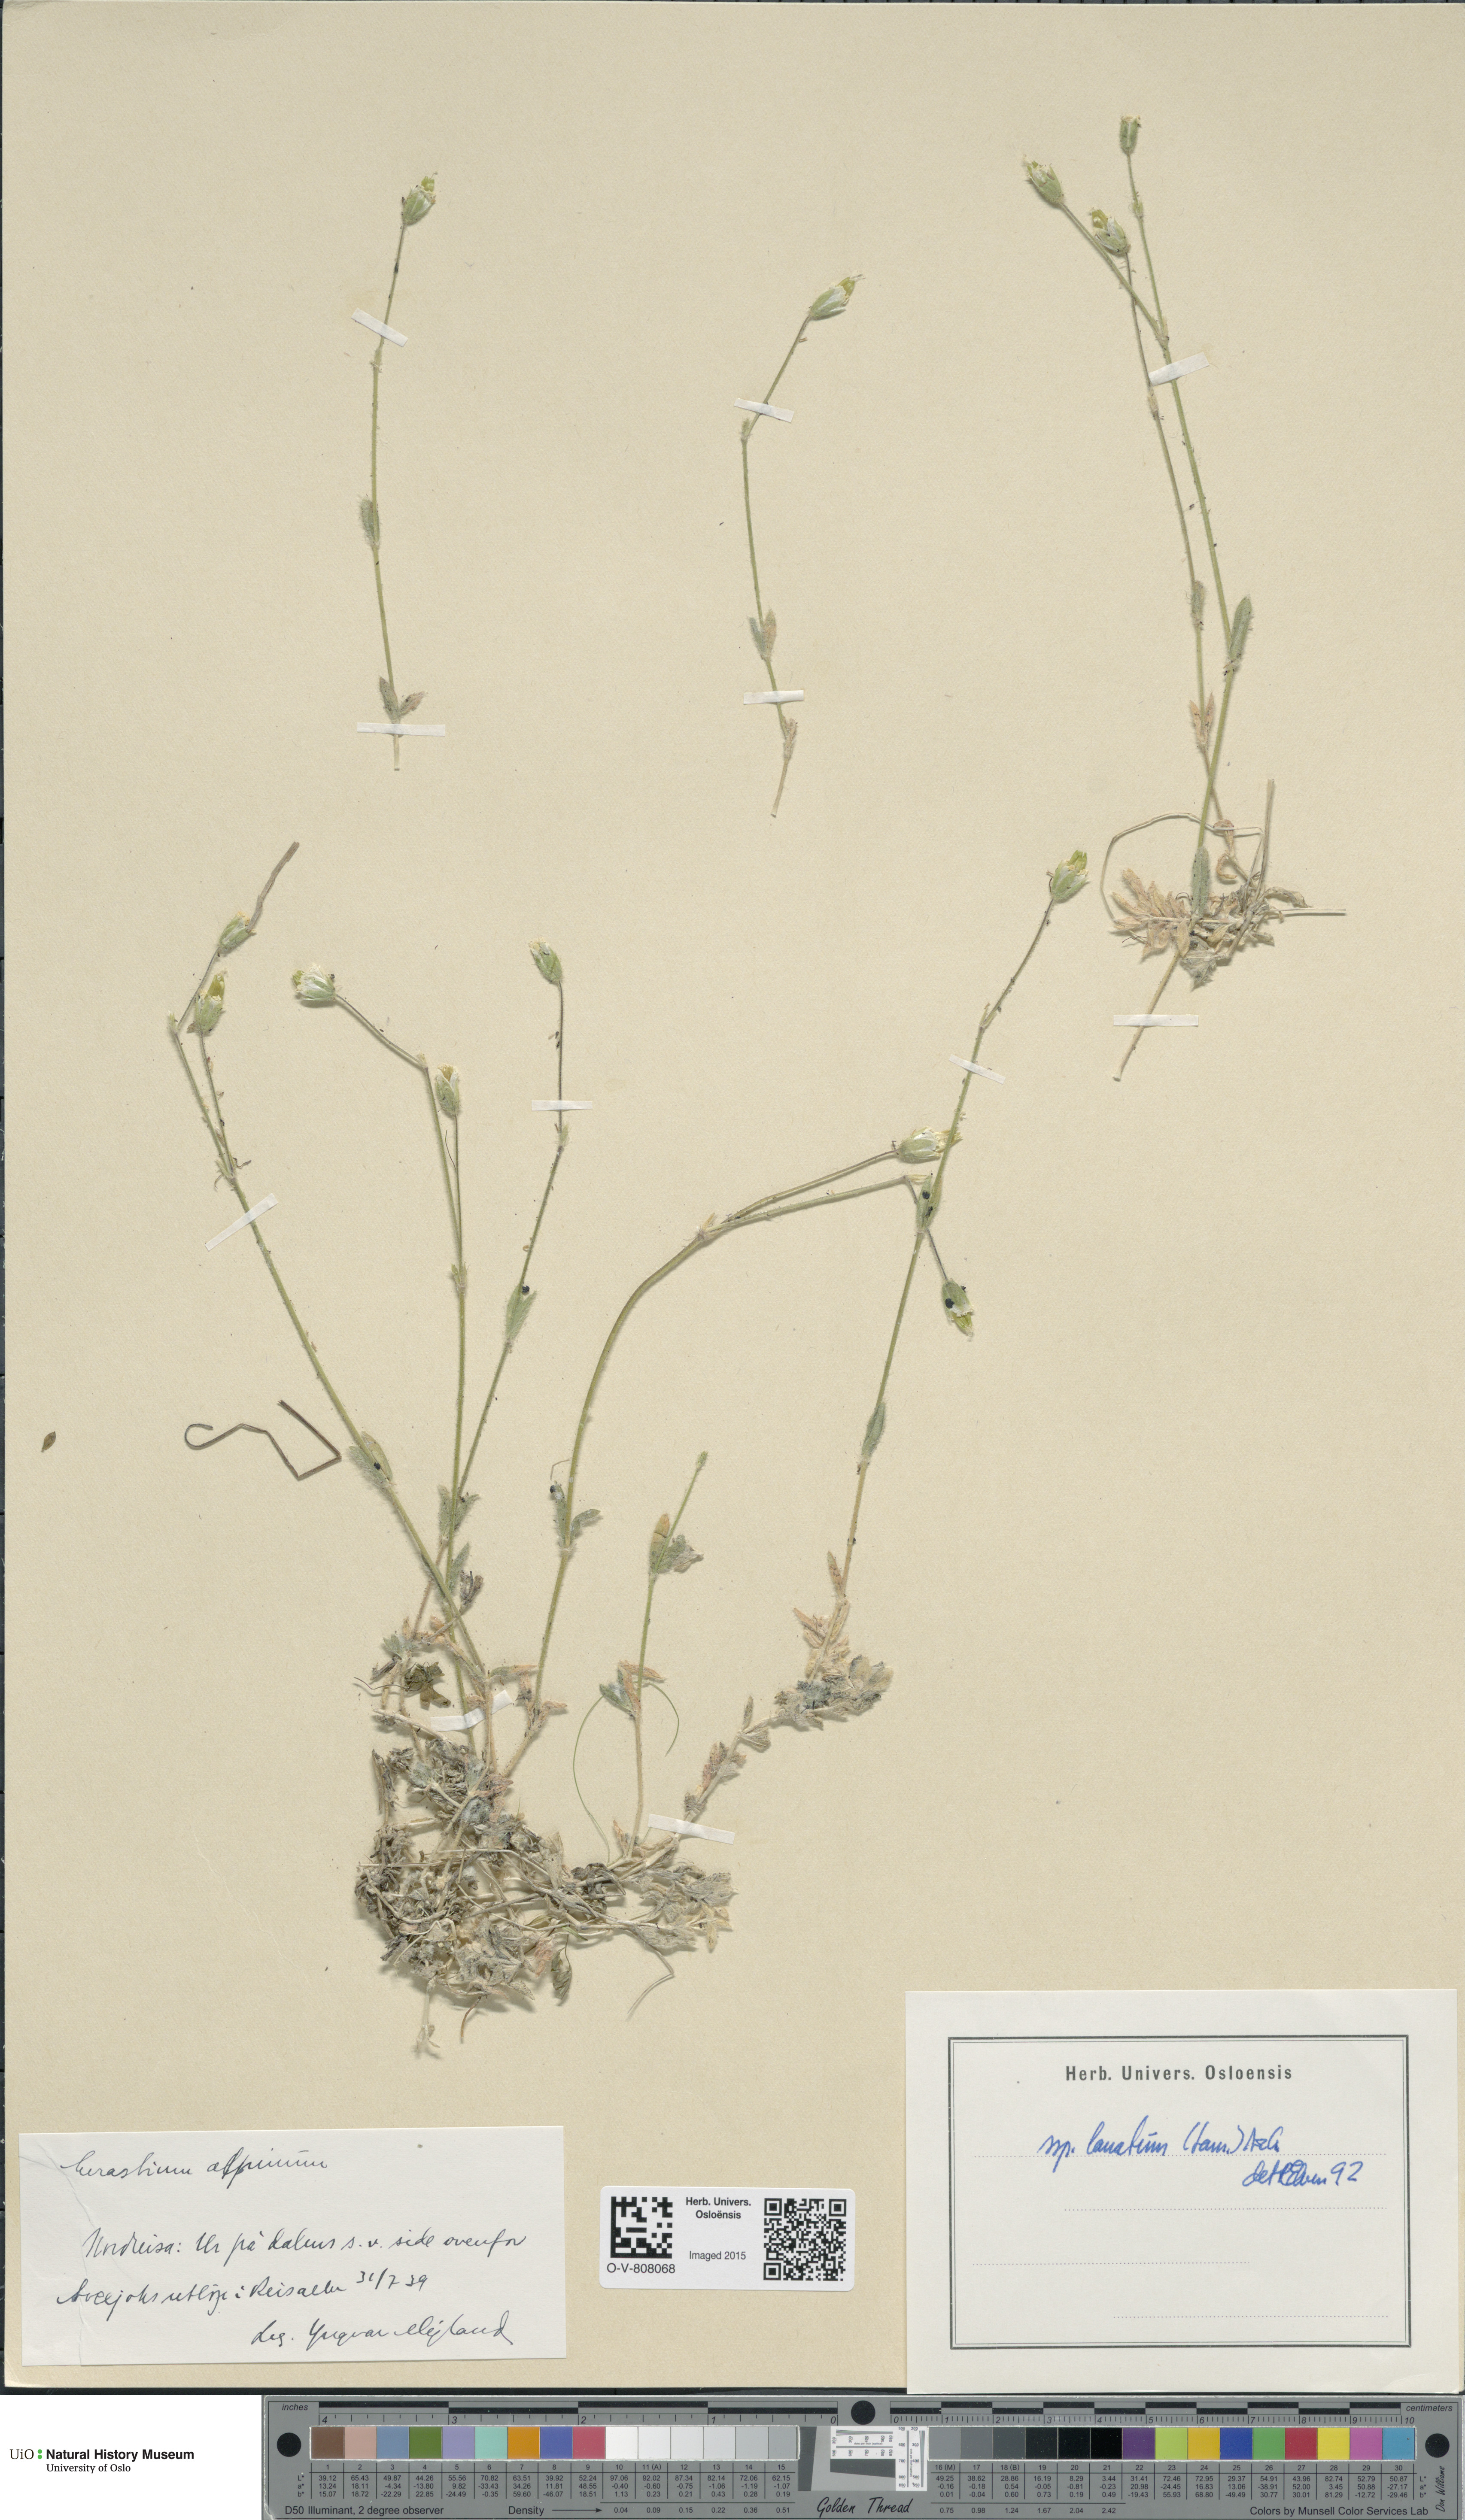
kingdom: Plantae
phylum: Tracheophyta
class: Magnoliopsida
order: Caryophyllales
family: Caryophyllaceae
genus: Cerastium
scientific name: Cerastium alpinum
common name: Alpine mouse-ear
